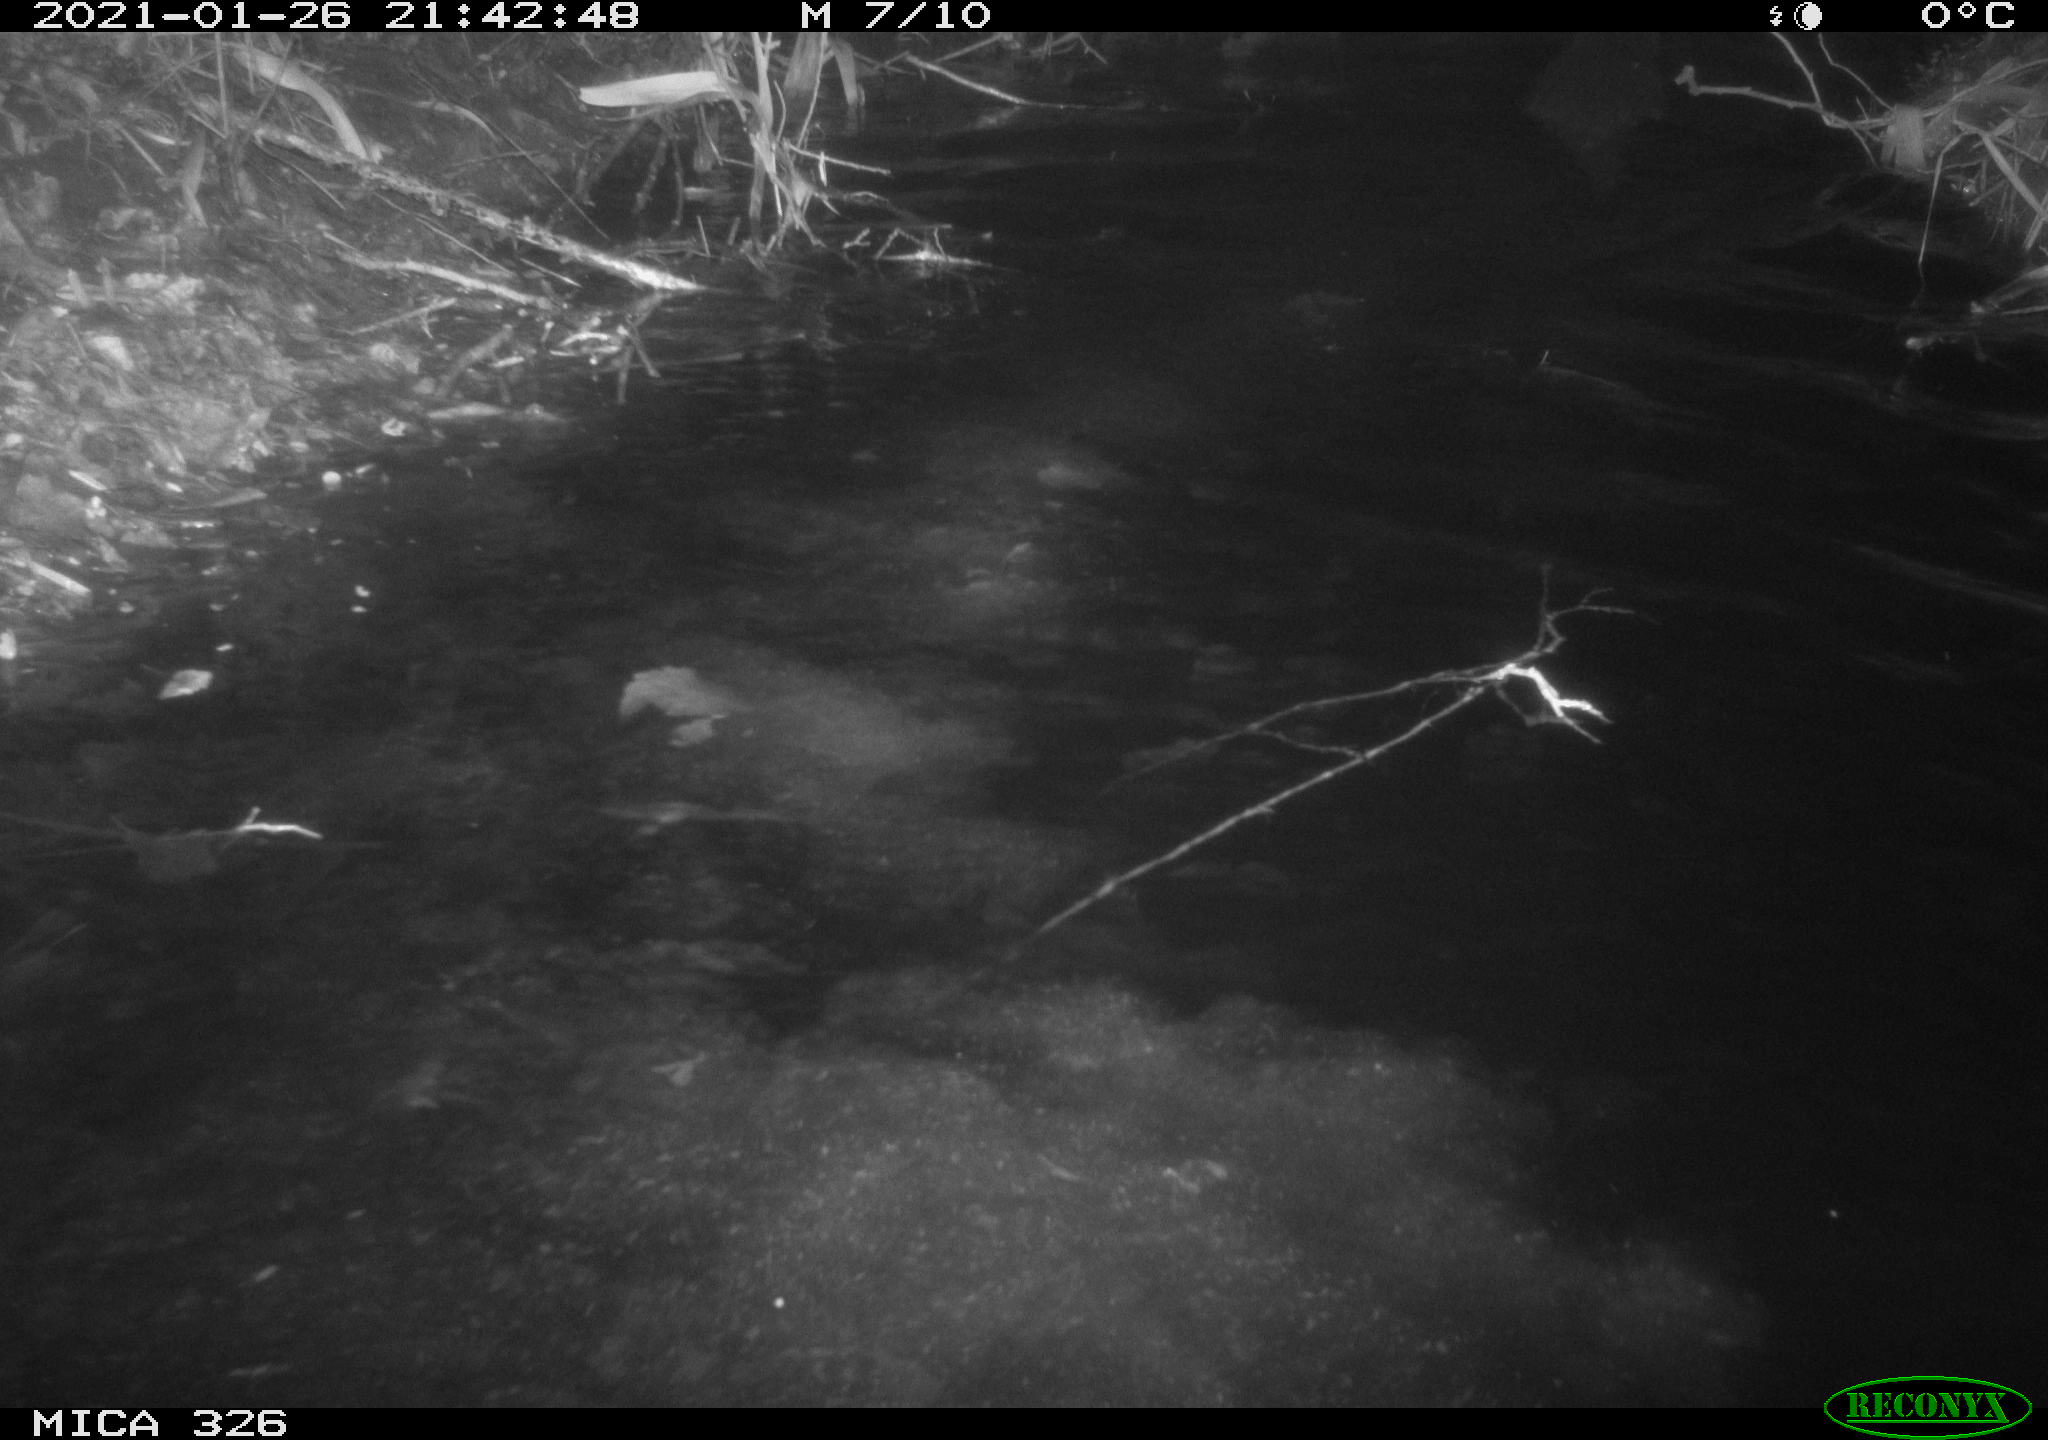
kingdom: Animalia
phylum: Chordata
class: Mammalia
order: Carnivora
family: Mustelidae
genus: Lutra
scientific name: Lutra lutra
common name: European otter
